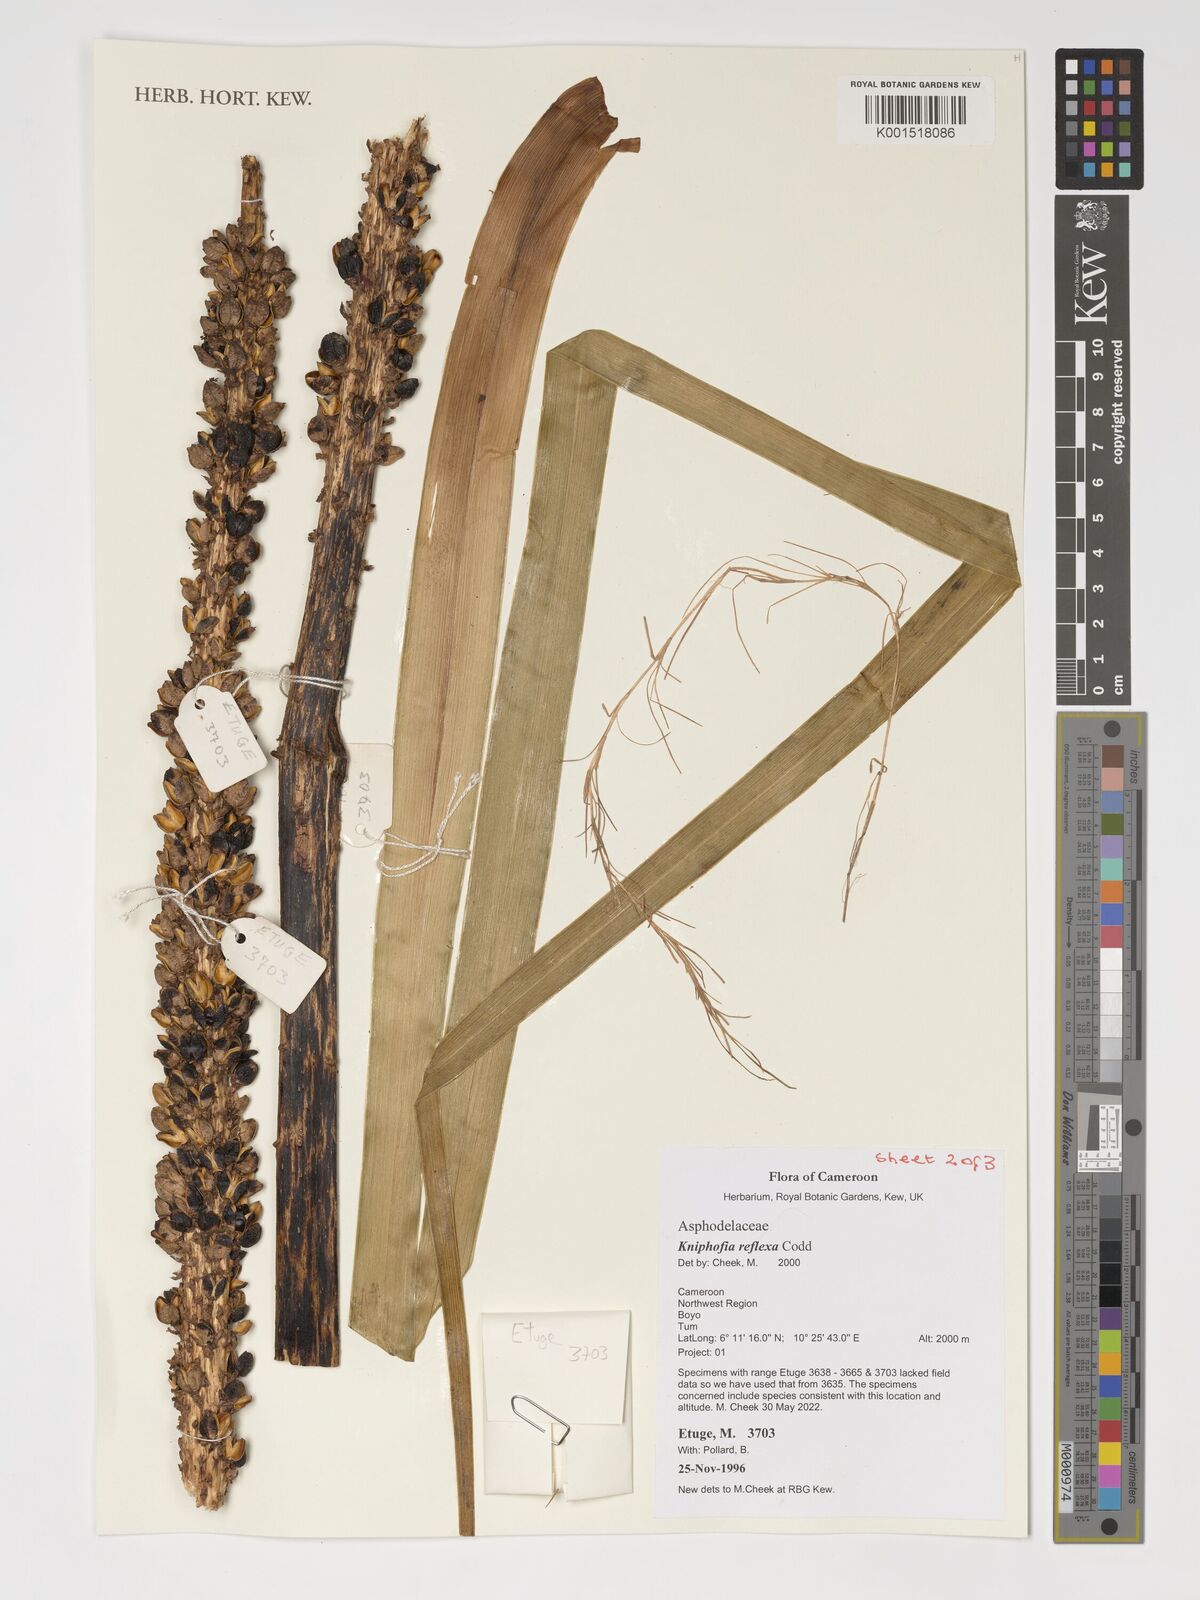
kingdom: Plantae
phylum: Tracheophyta
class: Liliopsida
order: Asparagales
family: Asphodelaceae
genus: Kniphofia
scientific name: Kniphofia reflexa
